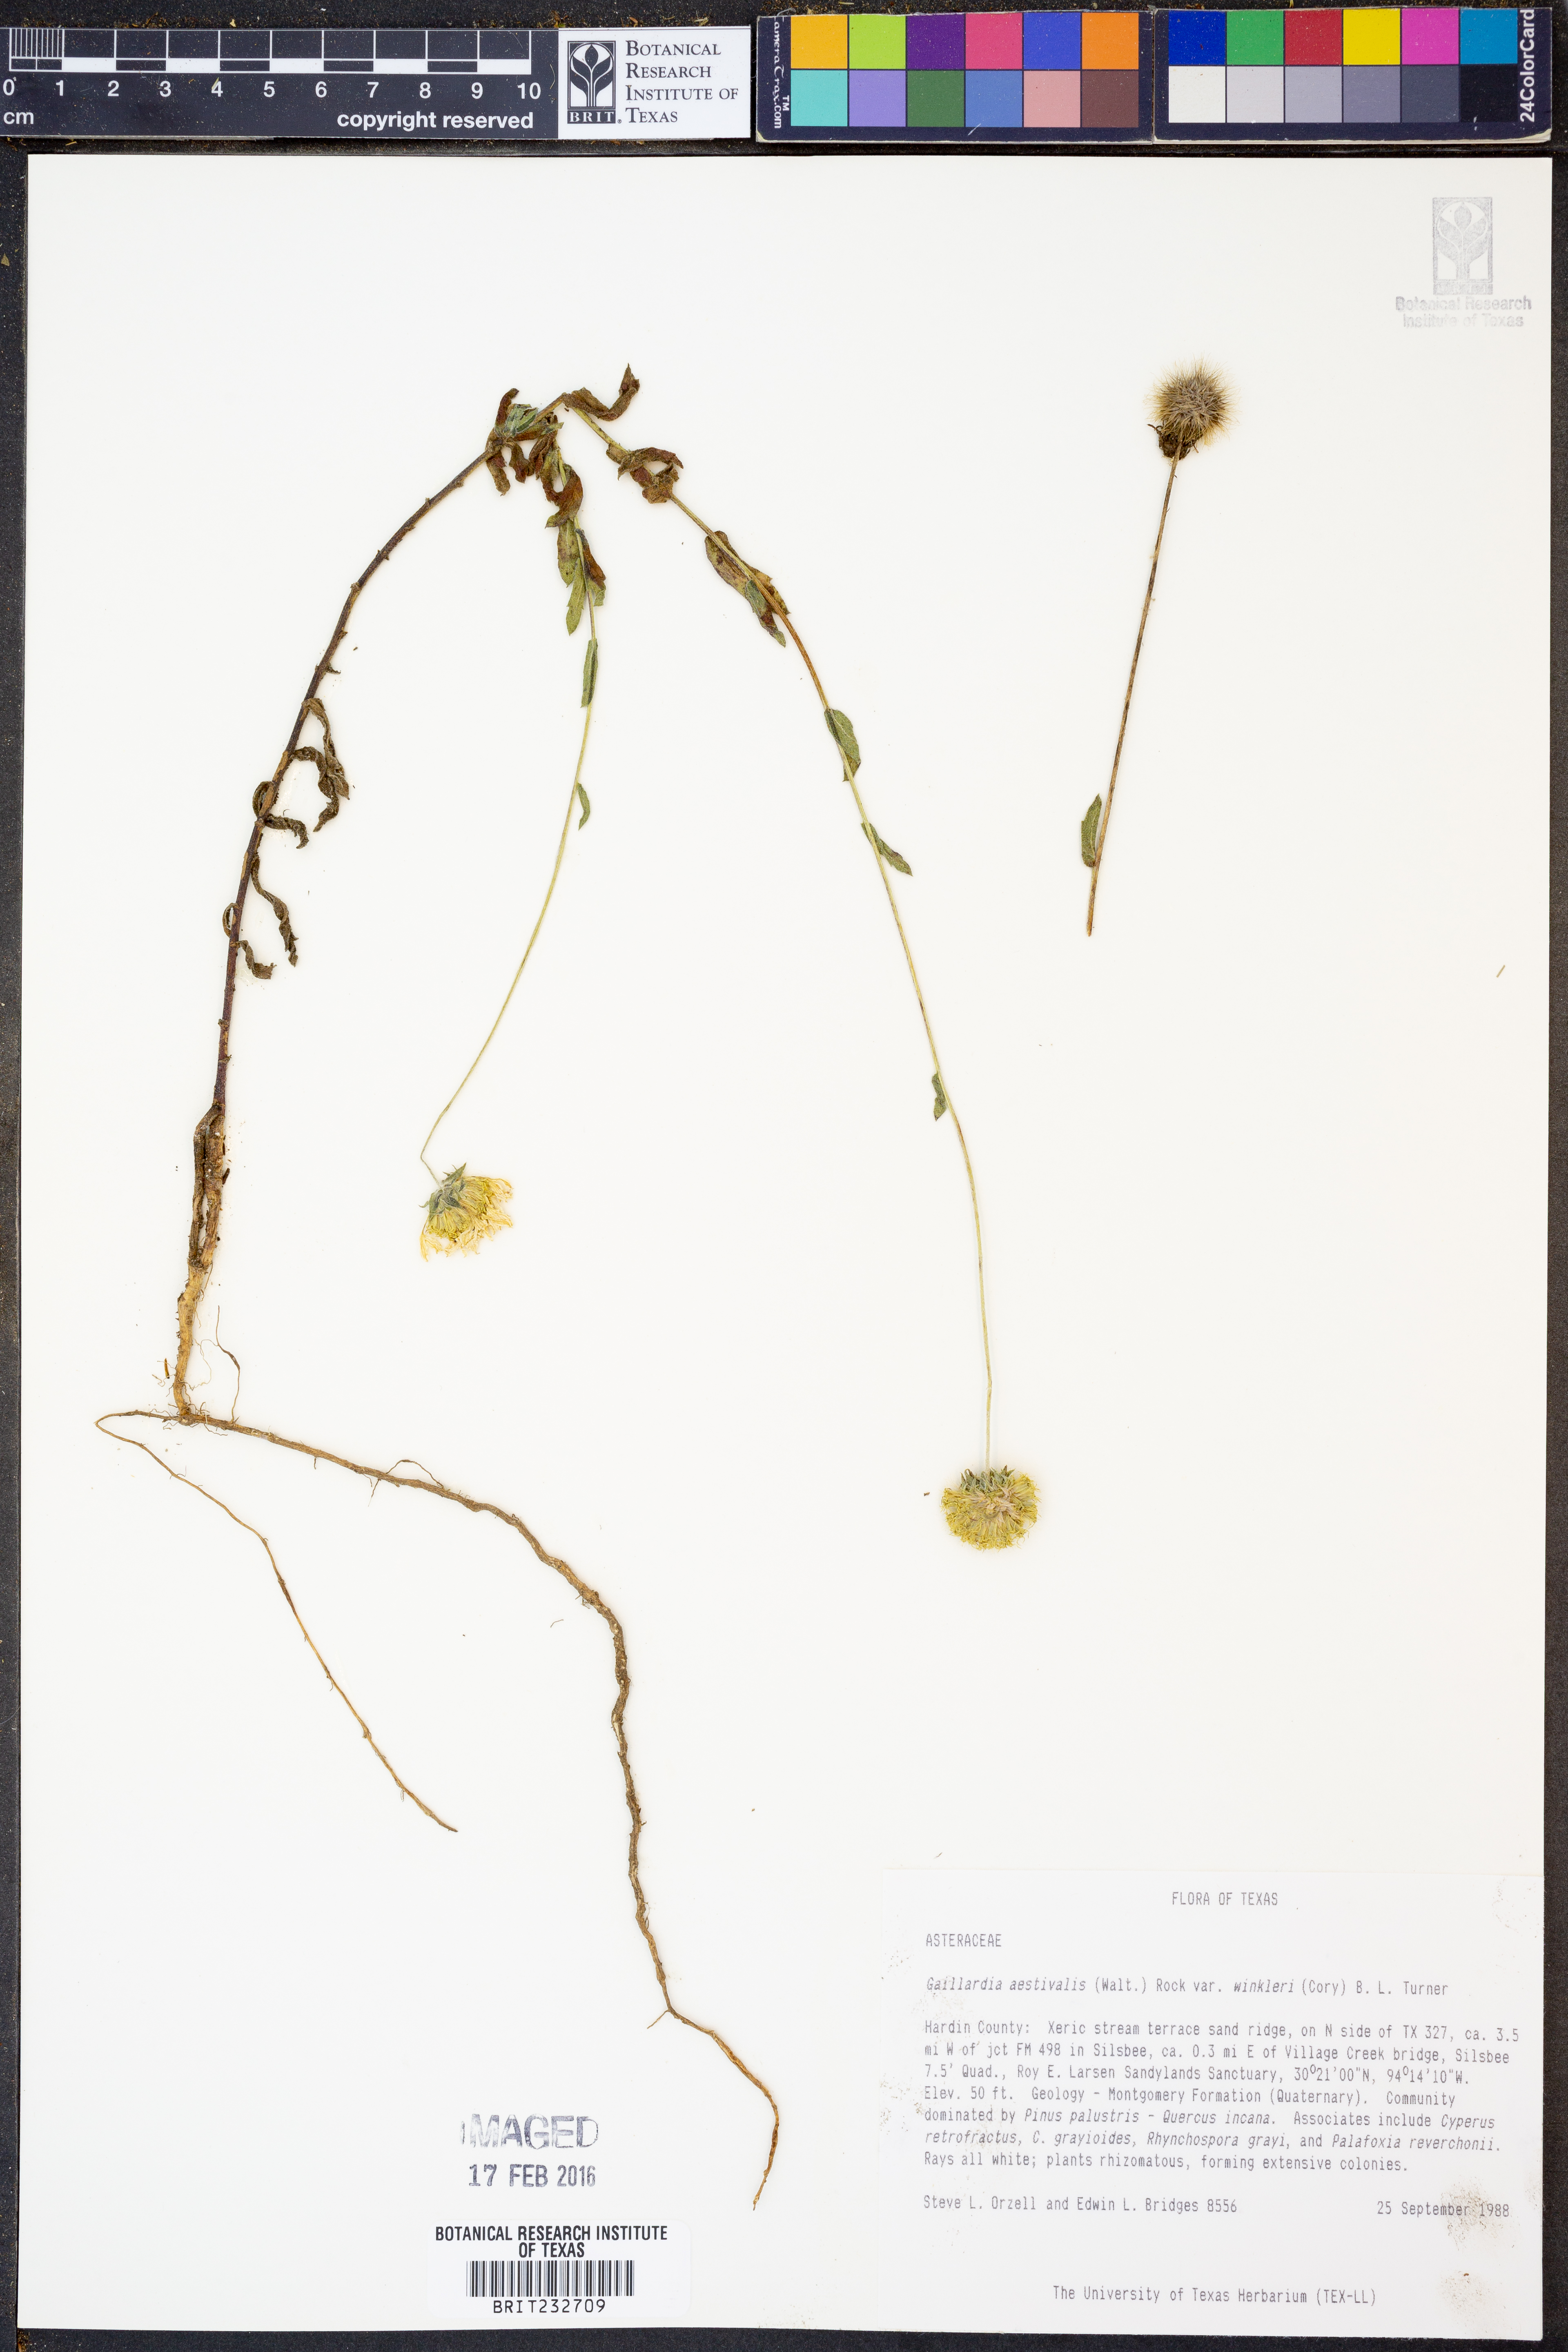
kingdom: Plantae
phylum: Tracheophyta
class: Magnoliopsida
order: Asterales
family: Asteraceae
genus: Gaillardia
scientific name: Gaillardia aestivalis
